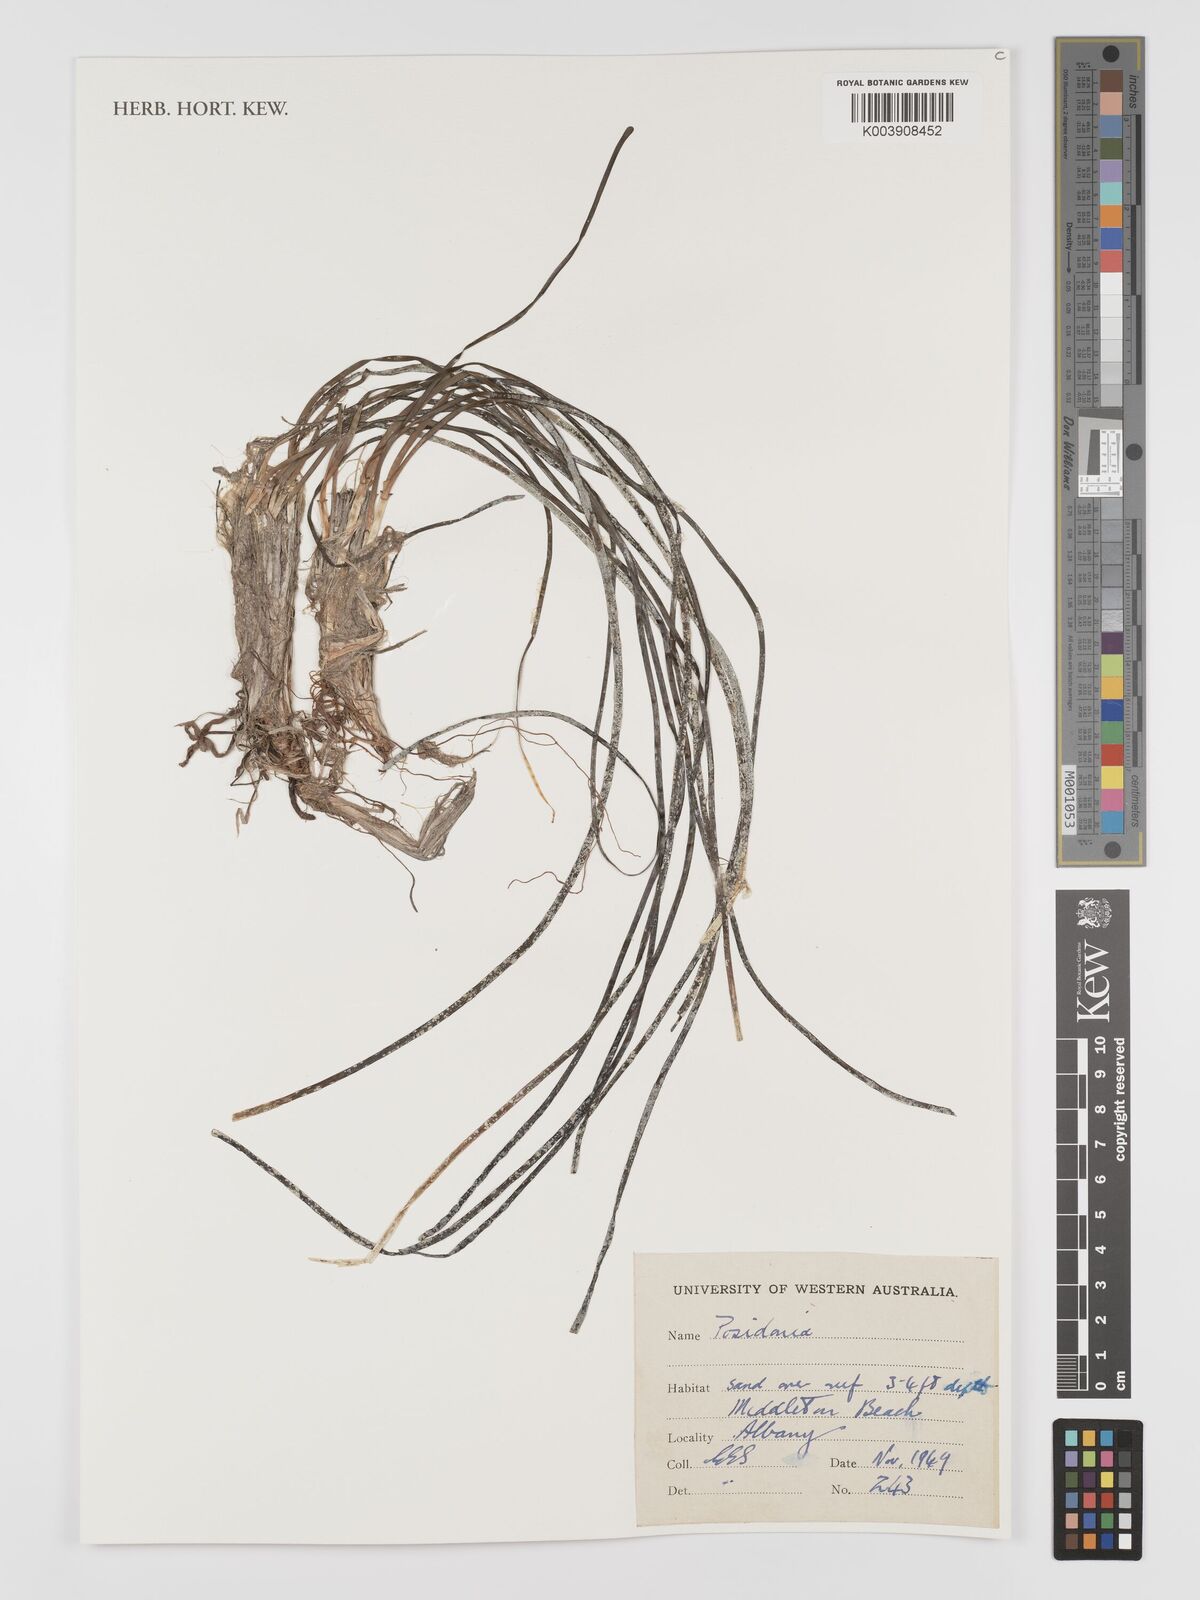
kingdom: Plantae
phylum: Tracheophyta
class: Liliopsida
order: Alismatales
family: Posidoniaceae
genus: Posidonia
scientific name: Posidonia
